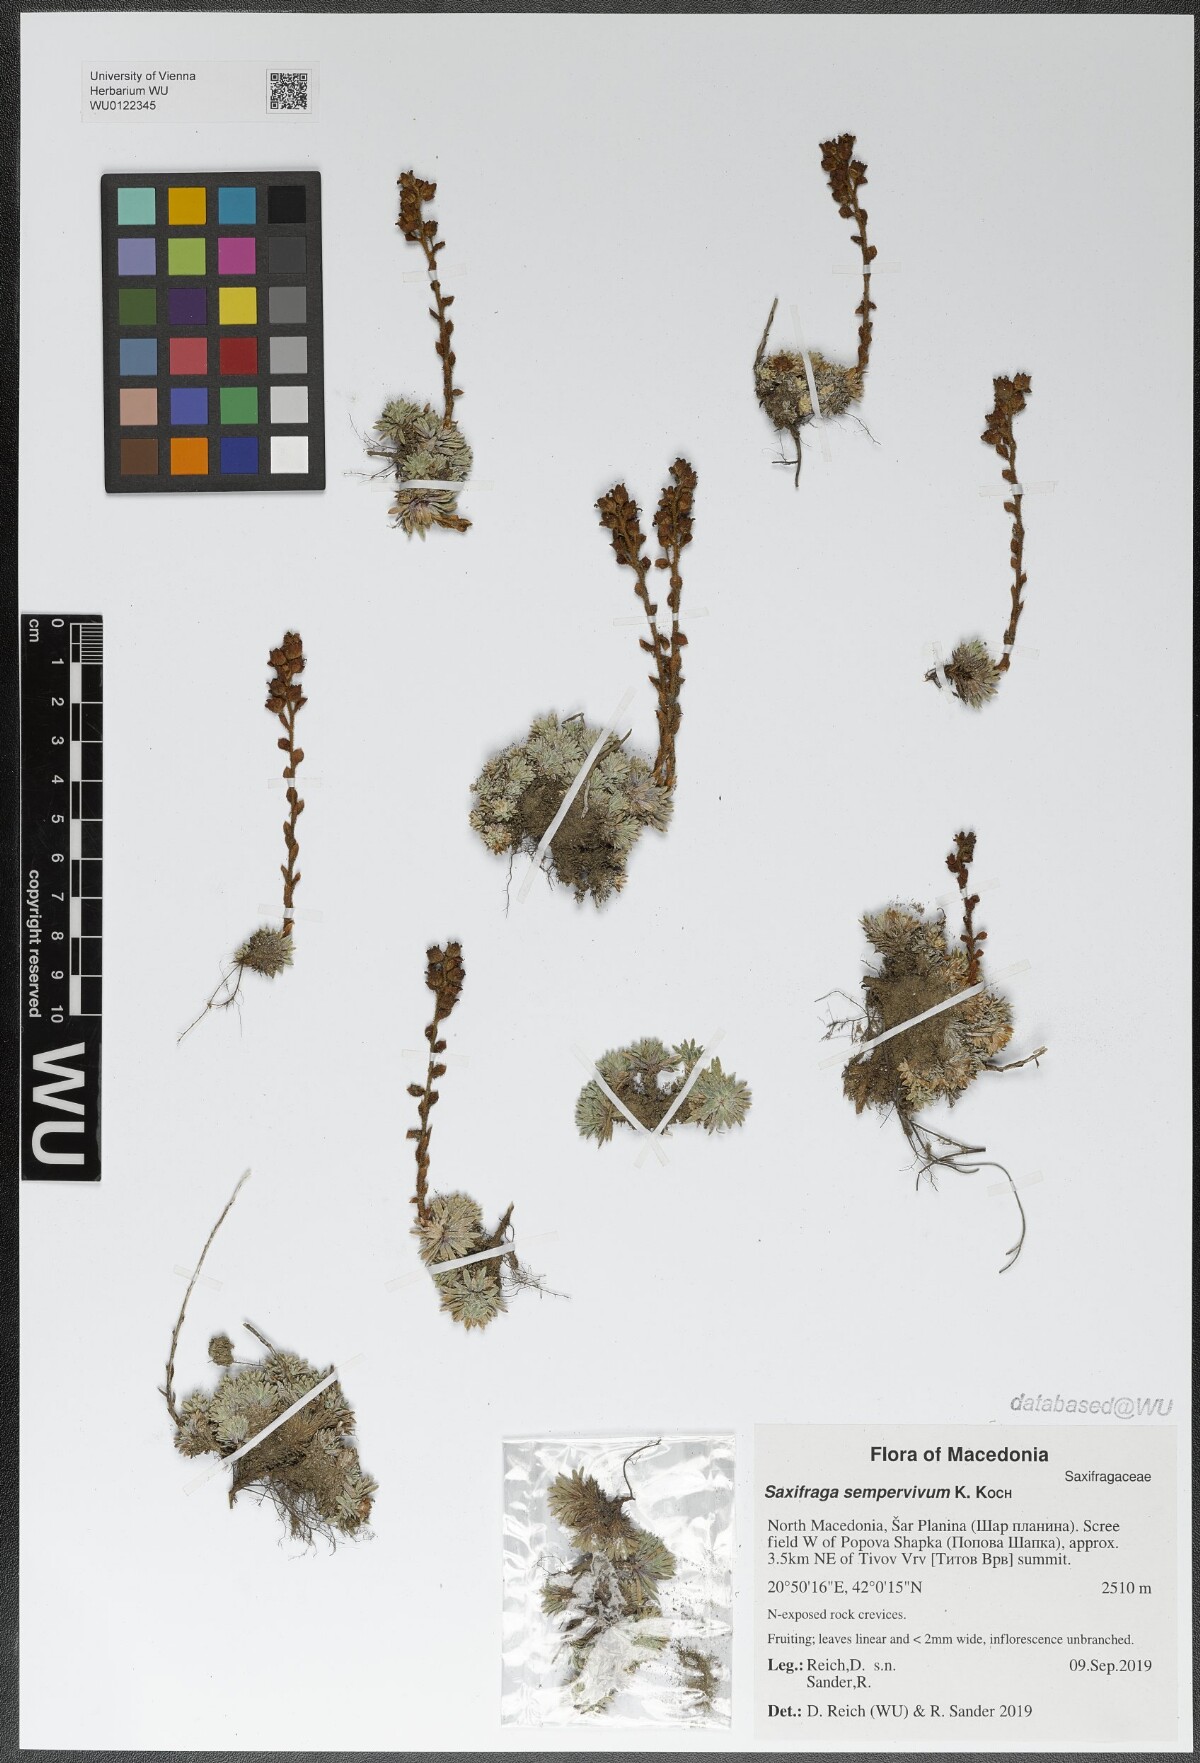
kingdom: Plantae
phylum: Tracheophyta
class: Magnoliopsida
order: Saxifragales
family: Saxifragaceae
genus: Saxifraga
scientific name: Saxifraga sempervivum
